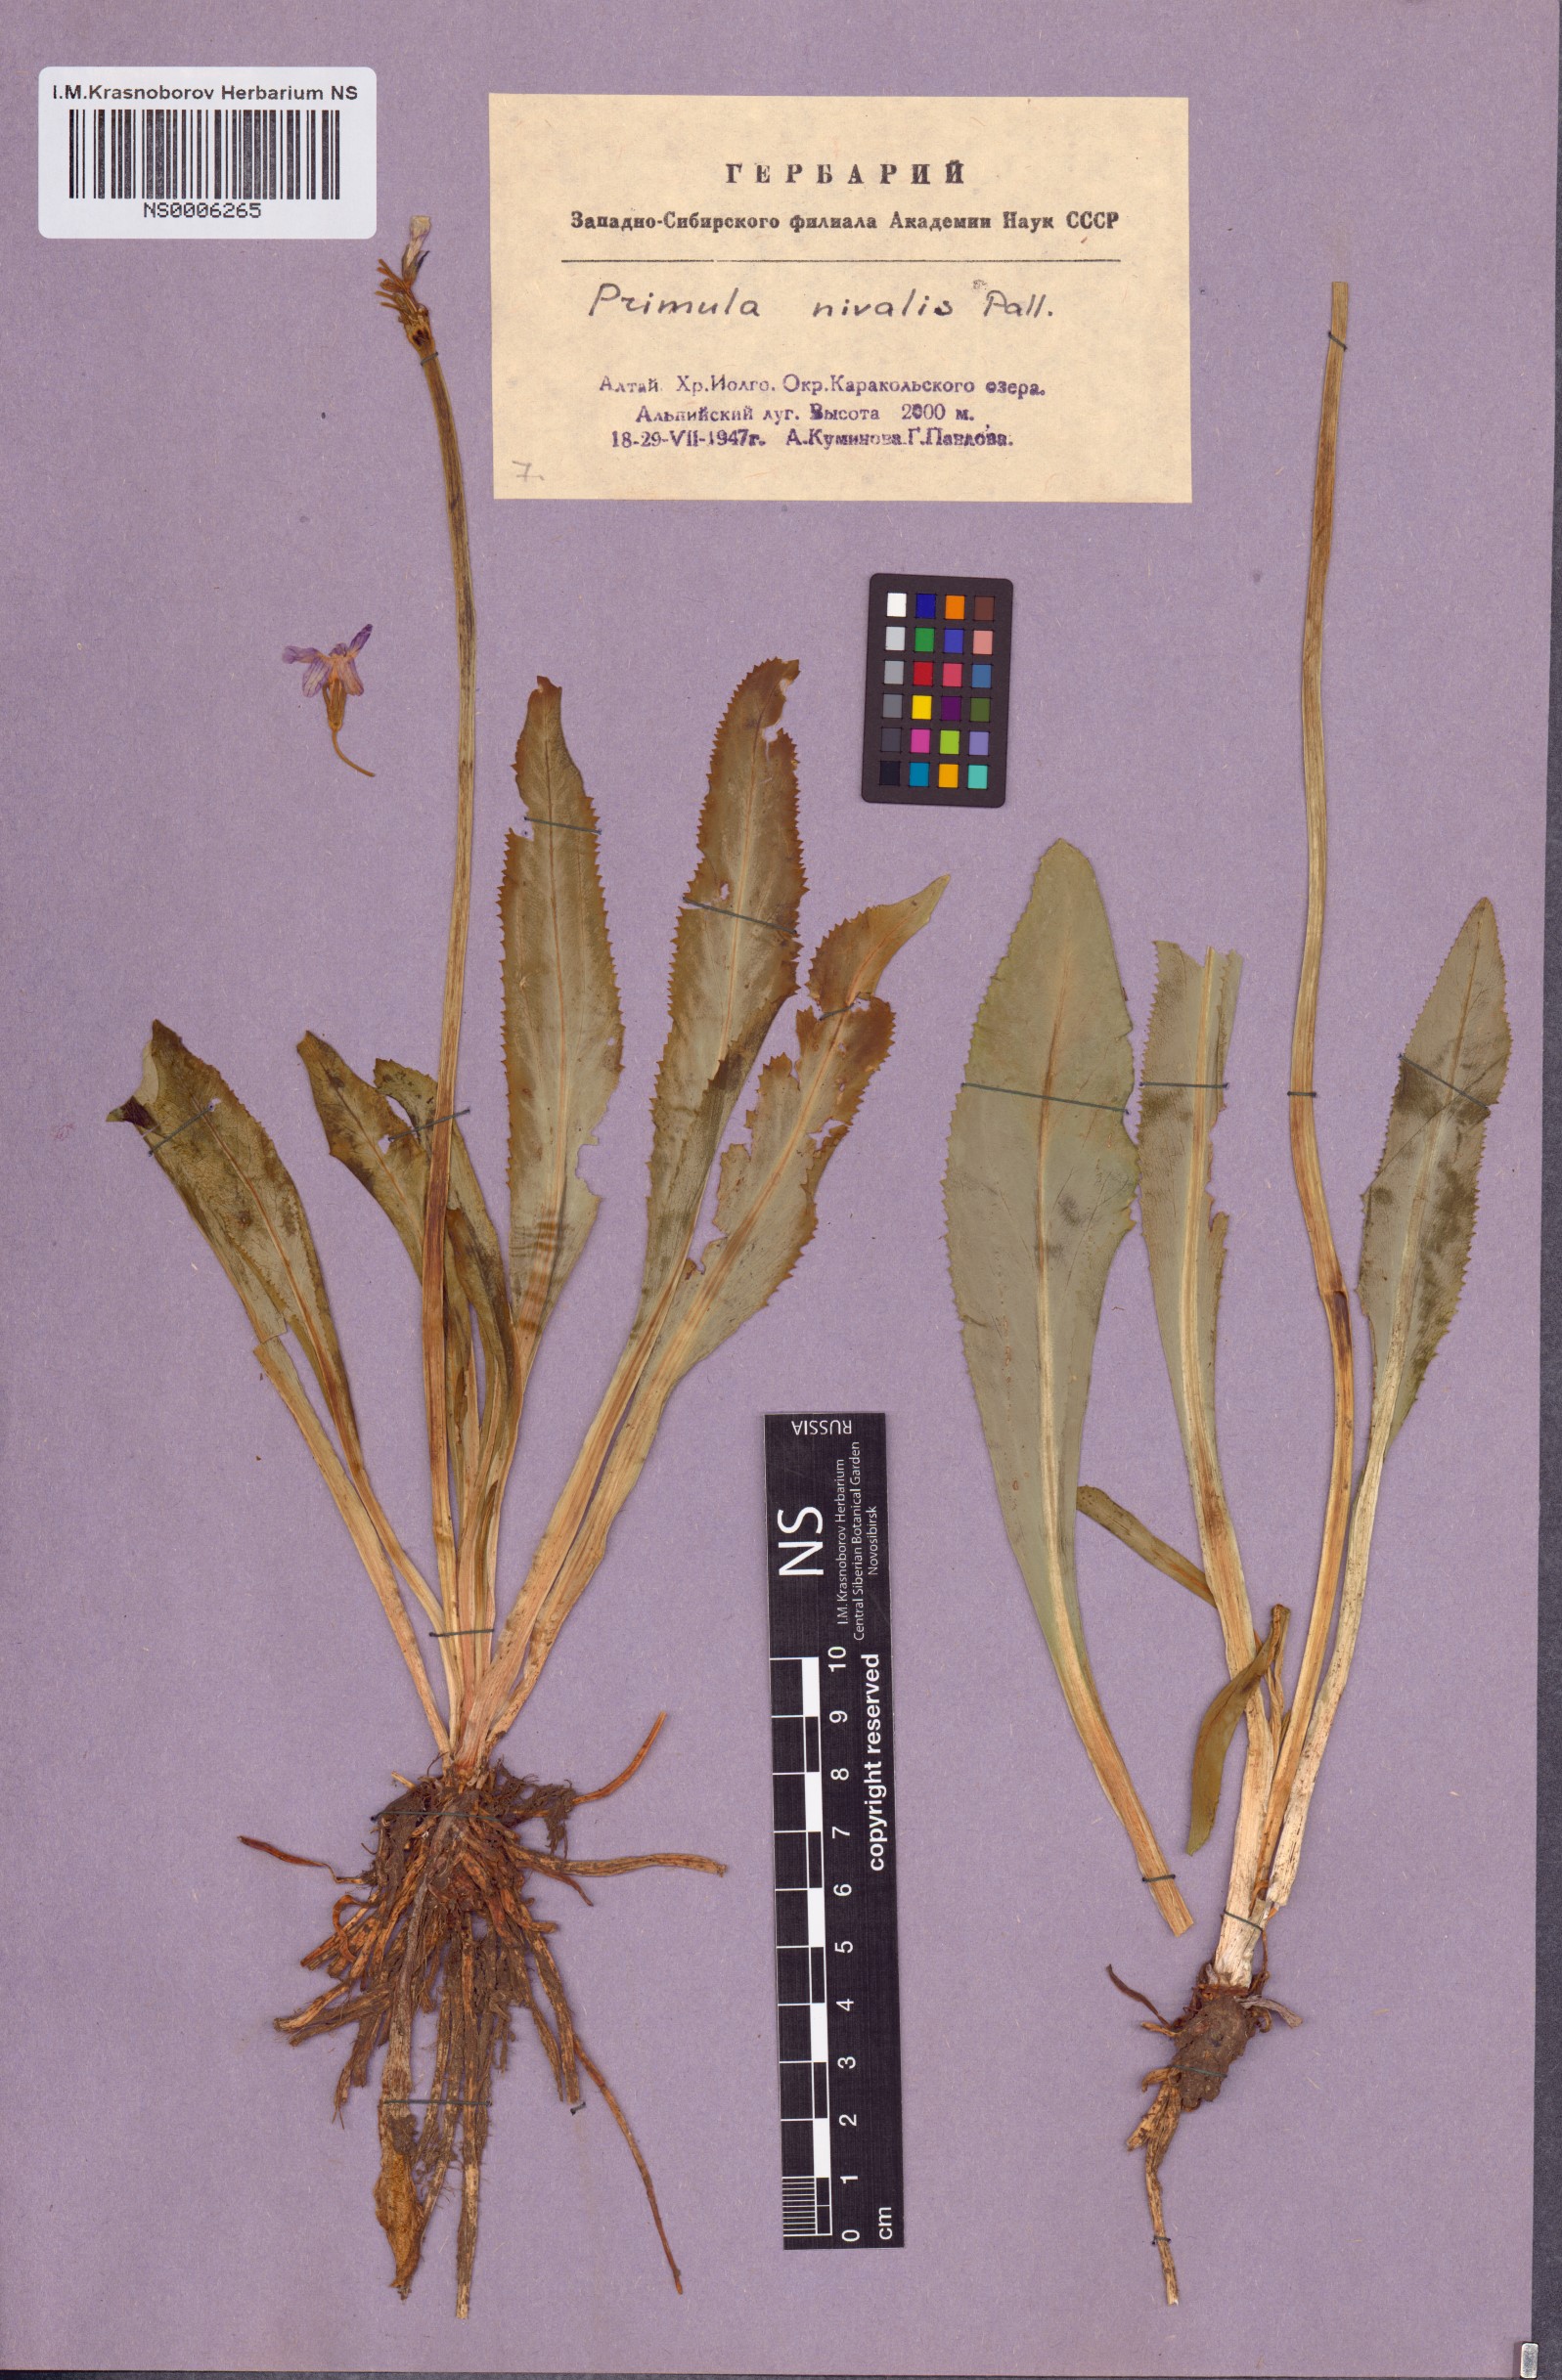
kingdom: Plantae
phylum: Tracheophyta
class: Magnoliopsida
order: Ericales
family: Primulaceae
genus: Primula
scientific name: Primula nivalis
